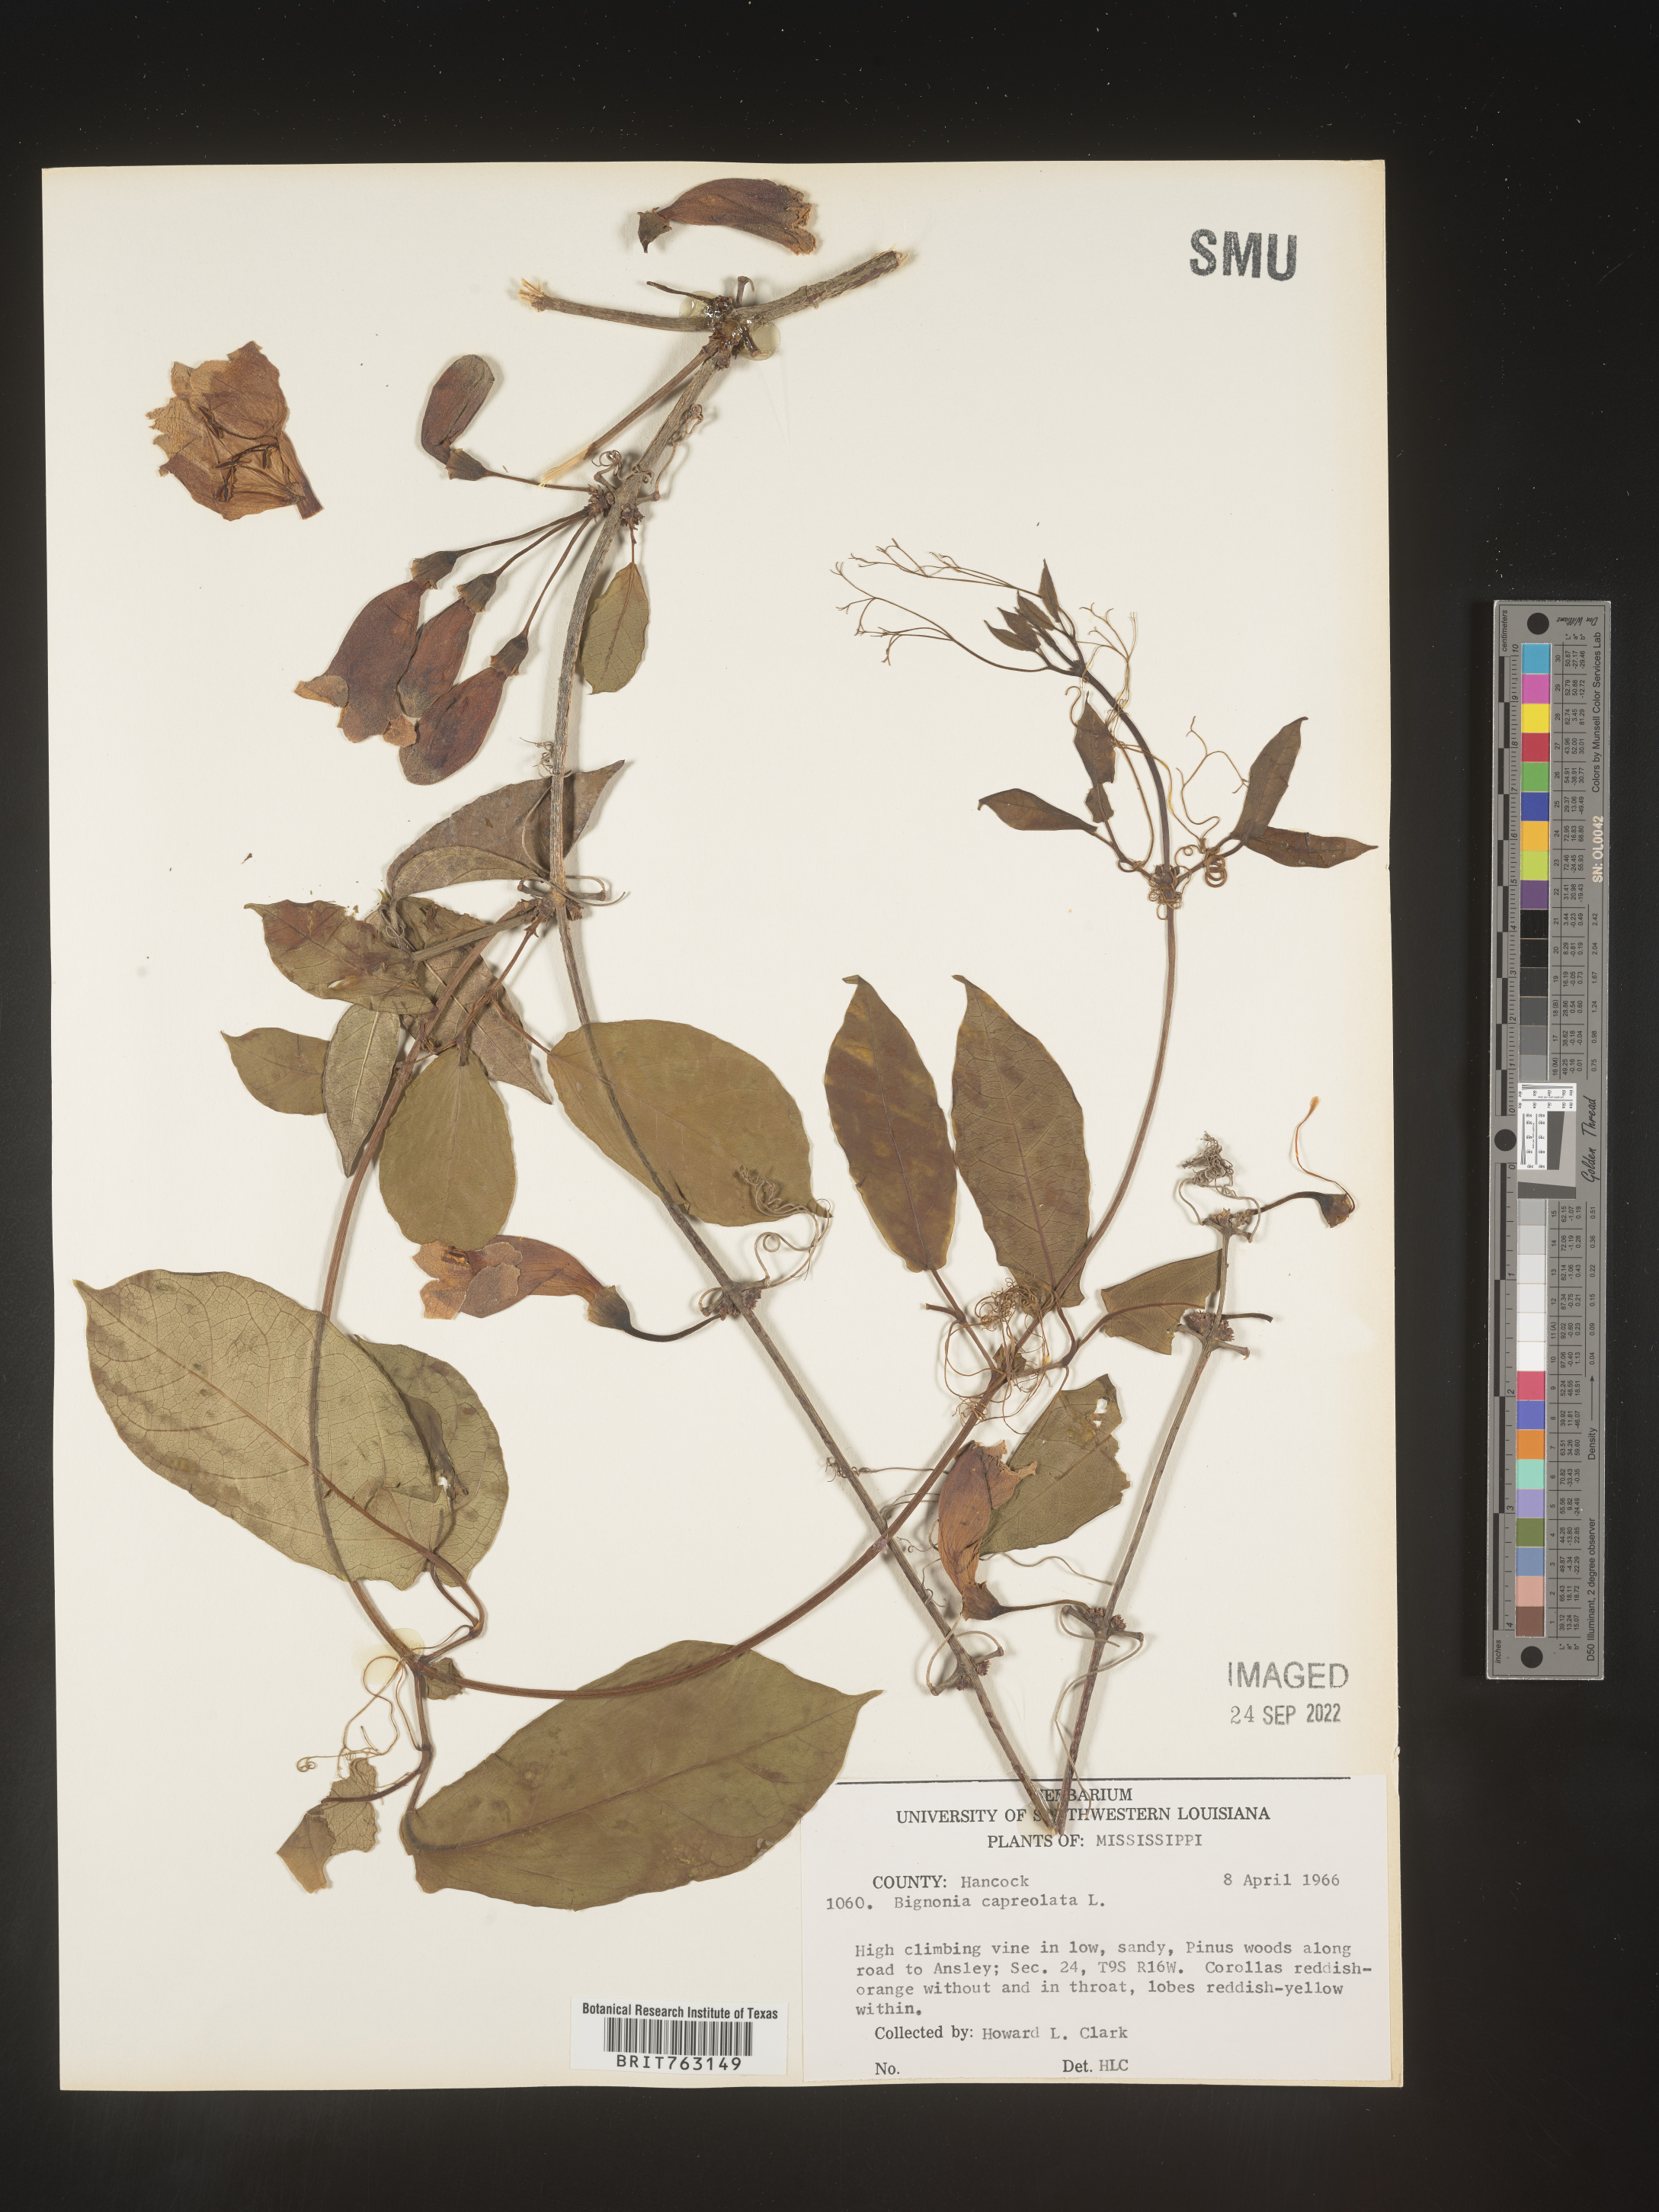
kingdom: Plantae
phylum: Tracheophyta
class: Magnoliopsida
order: Lamiales
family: Bignoniaceae
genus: Bignonia
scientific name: Bignonia capreolata
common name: Crossvine
